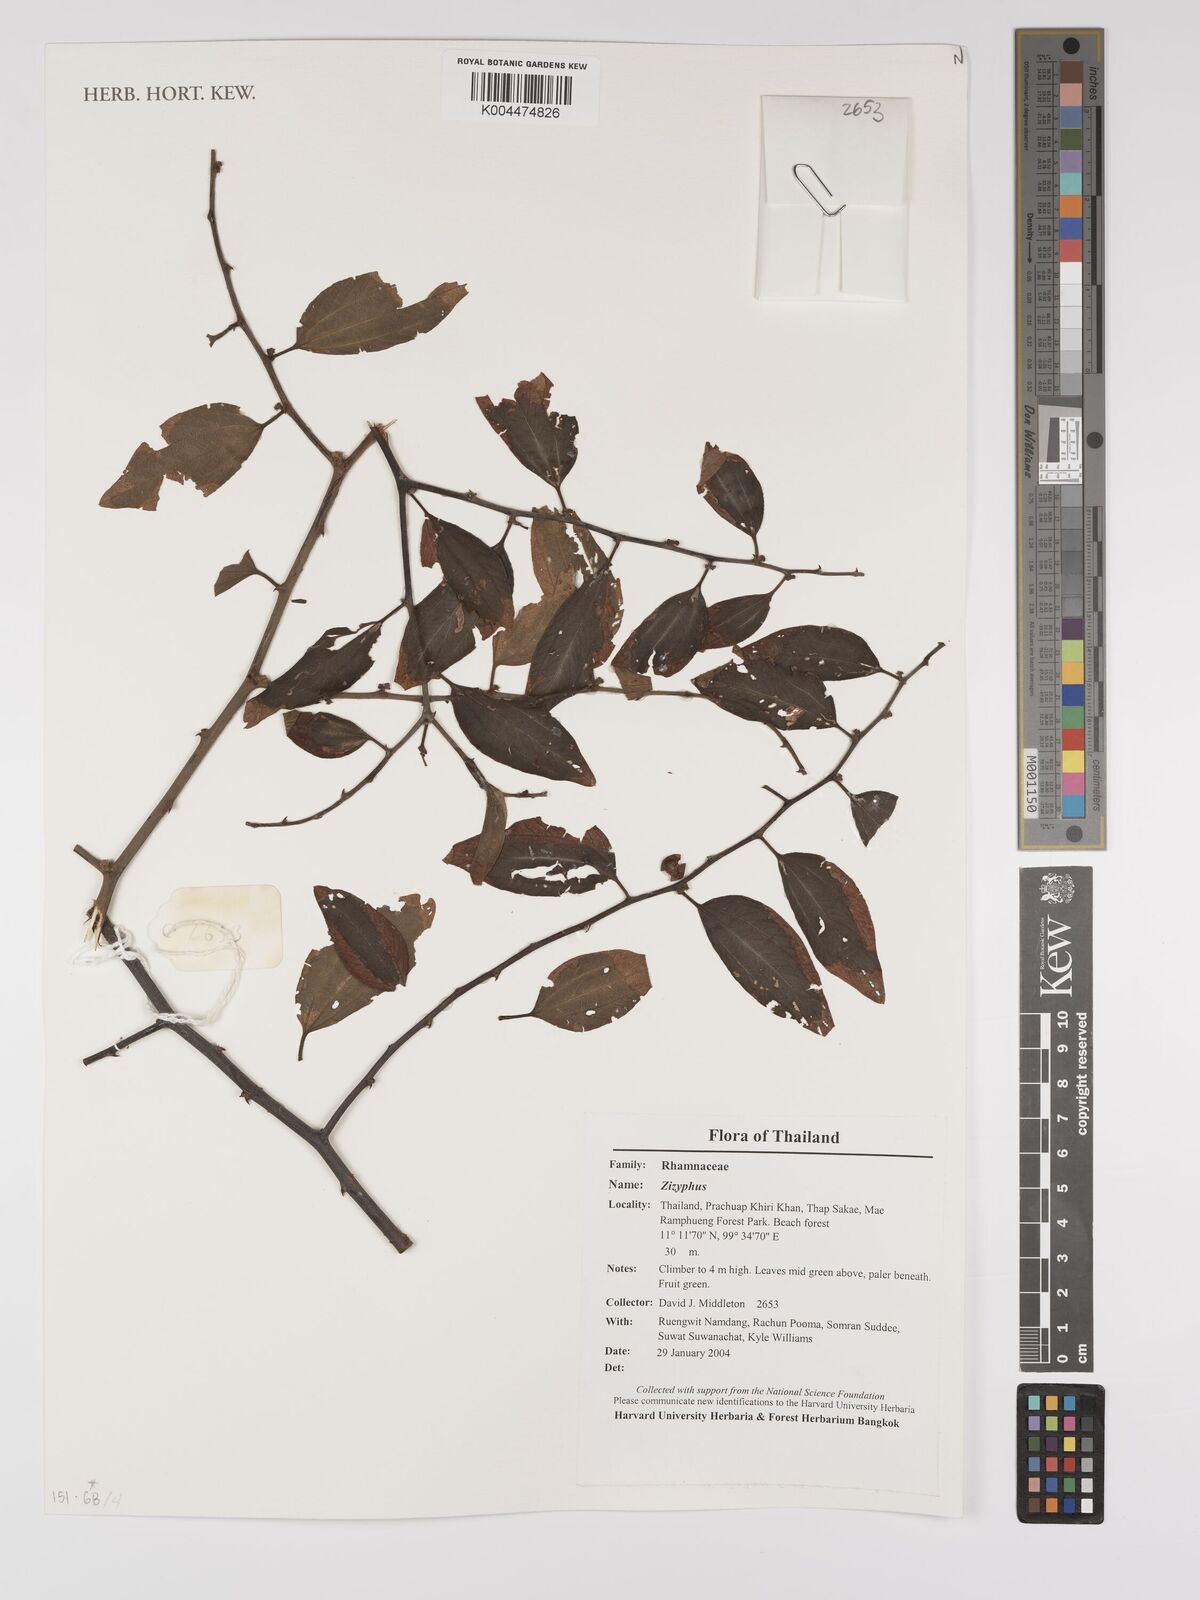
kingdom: Plantae
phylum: Tracheophyta
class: Magnoliopsida
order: Rosales
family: Rhamnaceae
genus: Ziziphus
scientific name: Ziziphus oenopolia
